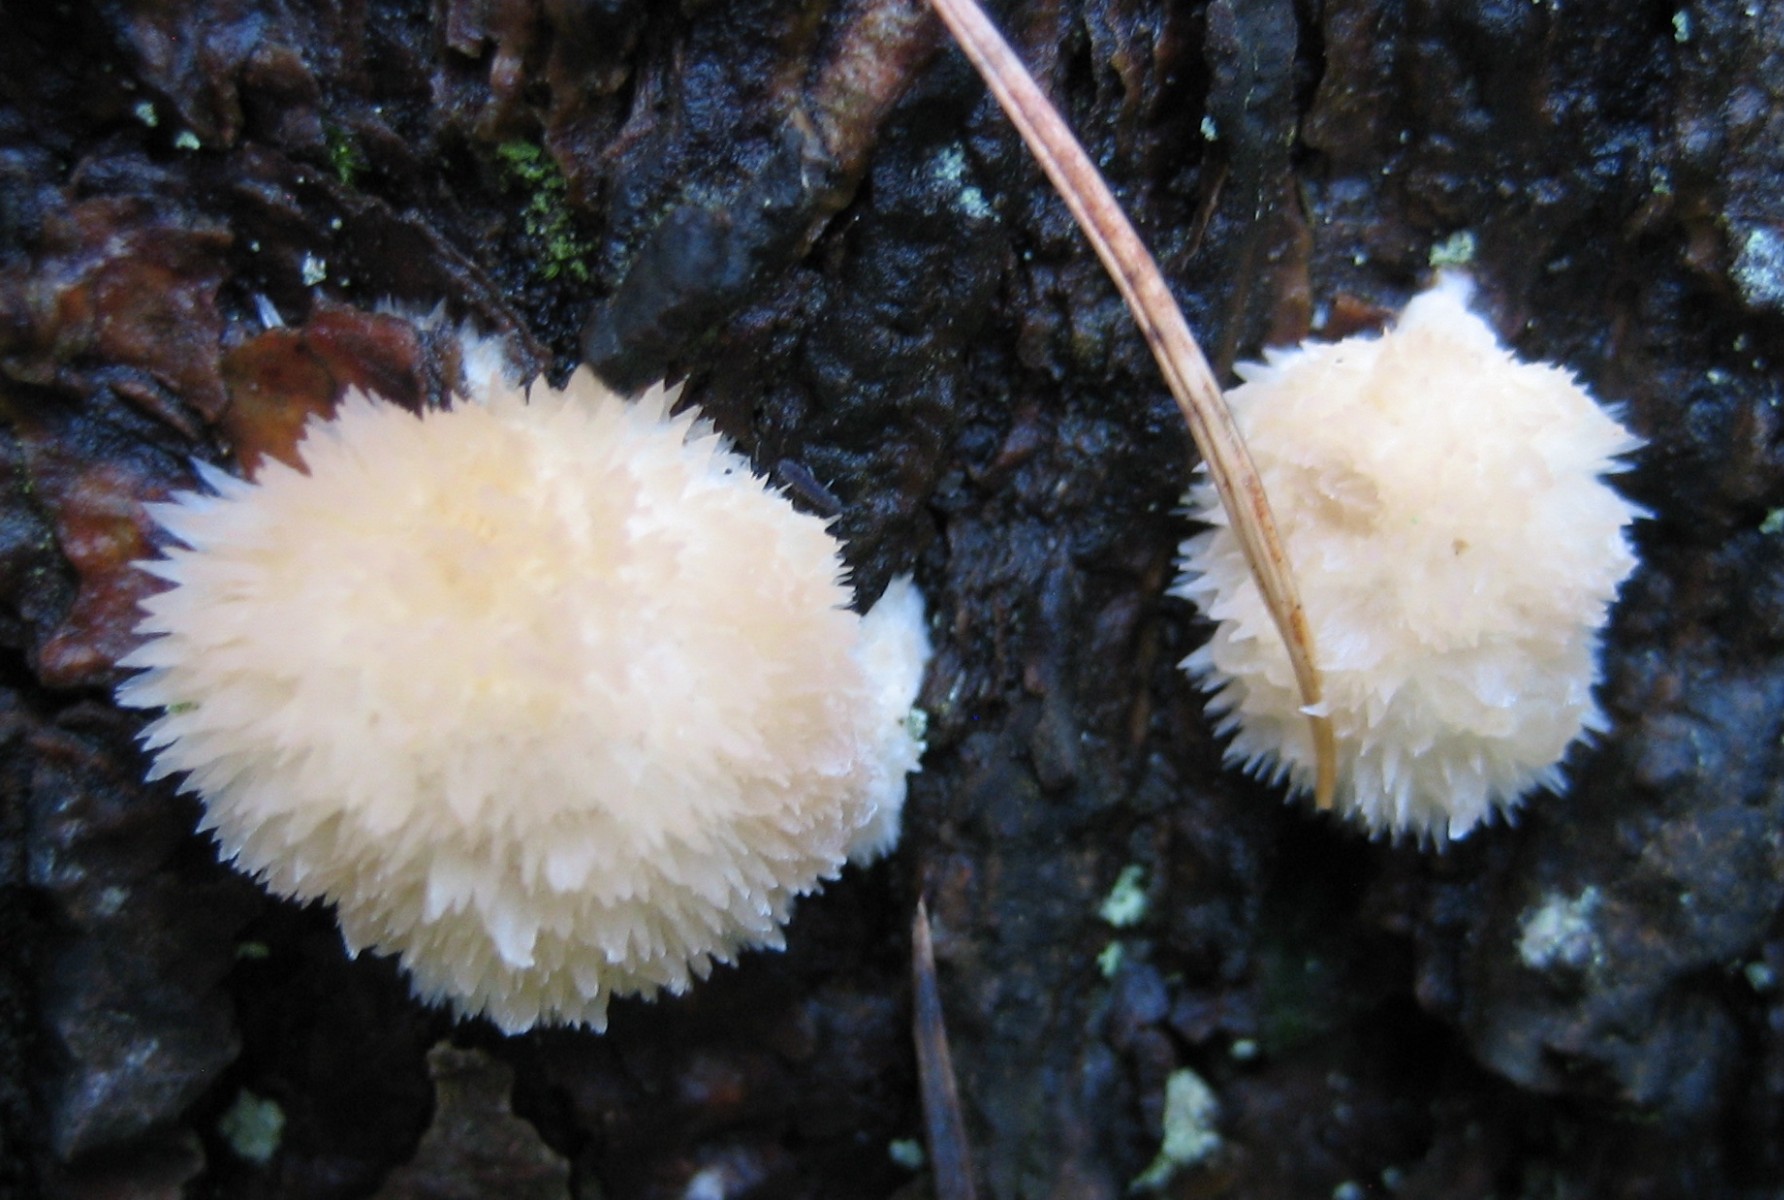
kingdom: Fungi
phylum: Basidiomycota
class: Agaricomycetes
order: Polyporales
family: Dacryobolaceae
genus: Postia
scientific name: Postia ptychogaster
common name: støvende kødporesvamp
